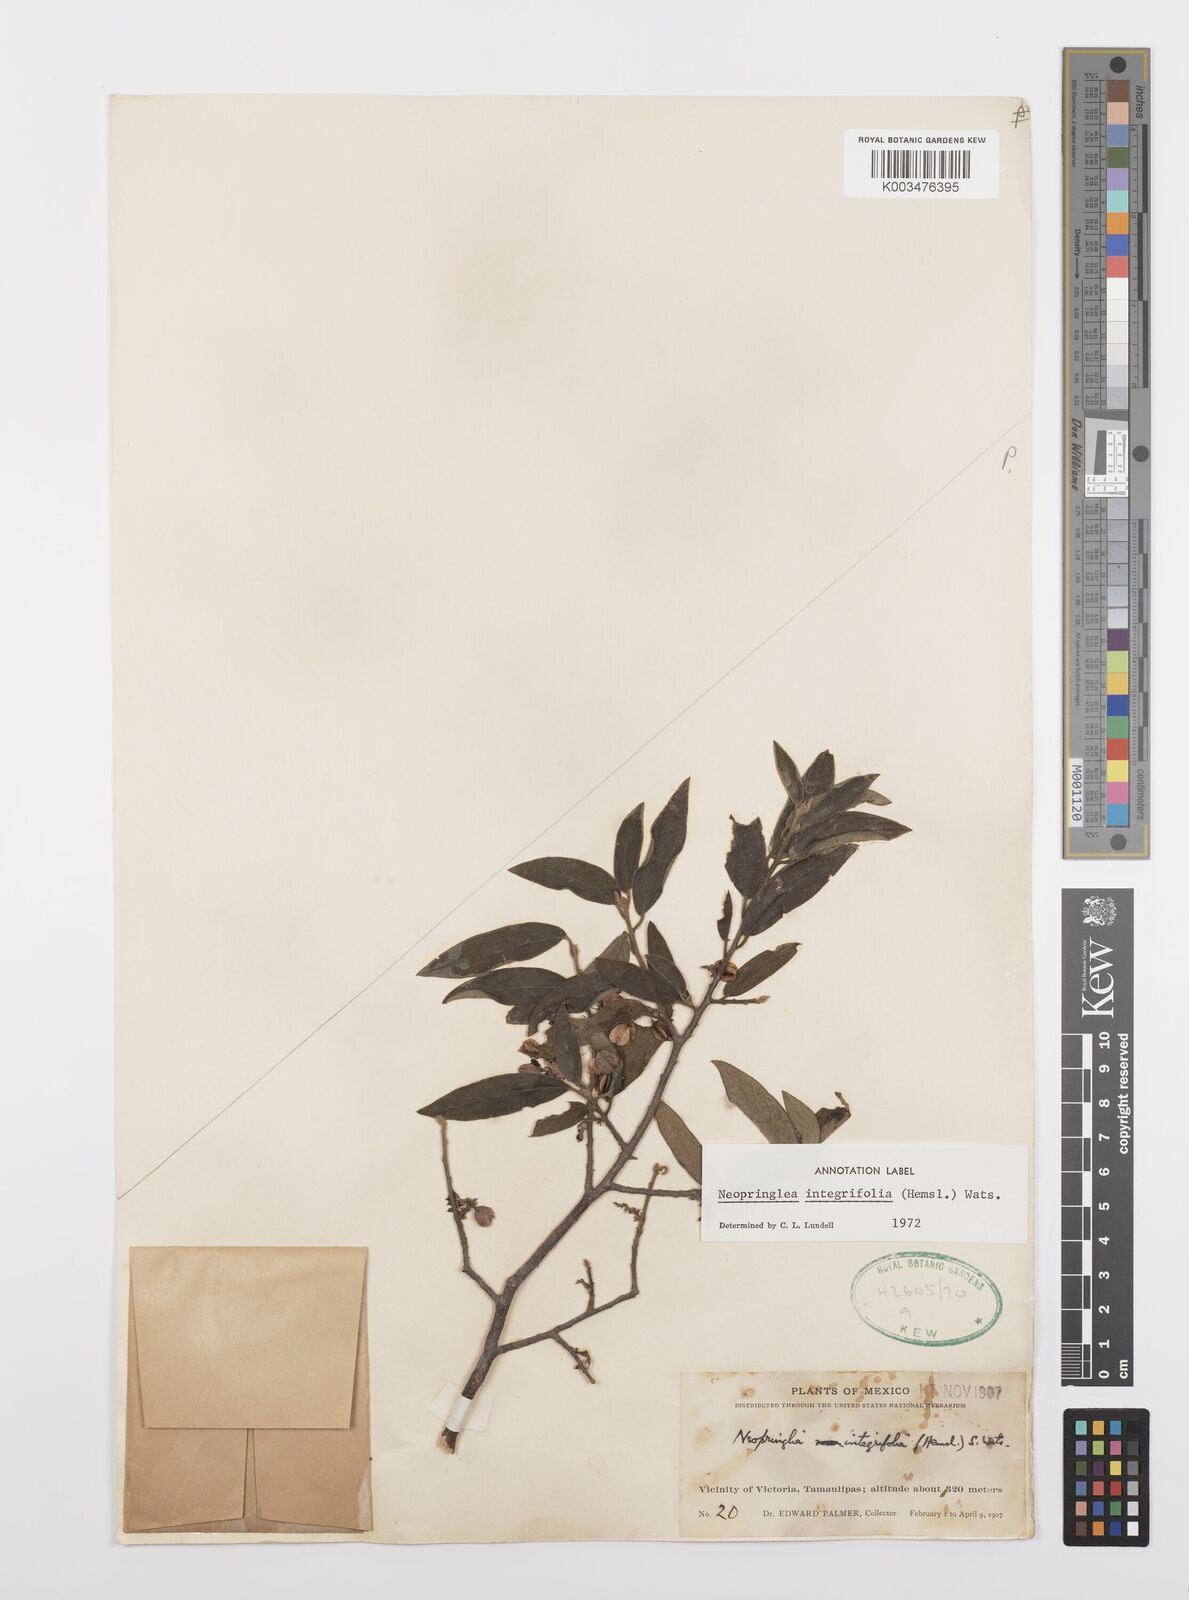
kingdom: Plantae
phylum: Tracheophyta
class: Magnoliopsida
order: Malpighiales
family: Salicaceae
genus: Neopringlea
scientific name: Neopringlea integrifolia
